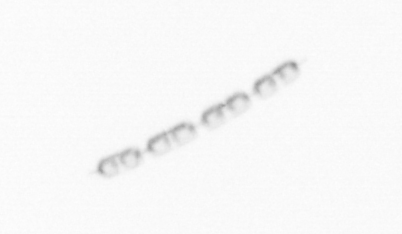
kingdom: Chromista
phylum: Ochrophyta
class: Bacillariophyceae
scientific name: Bacillariophyceae
